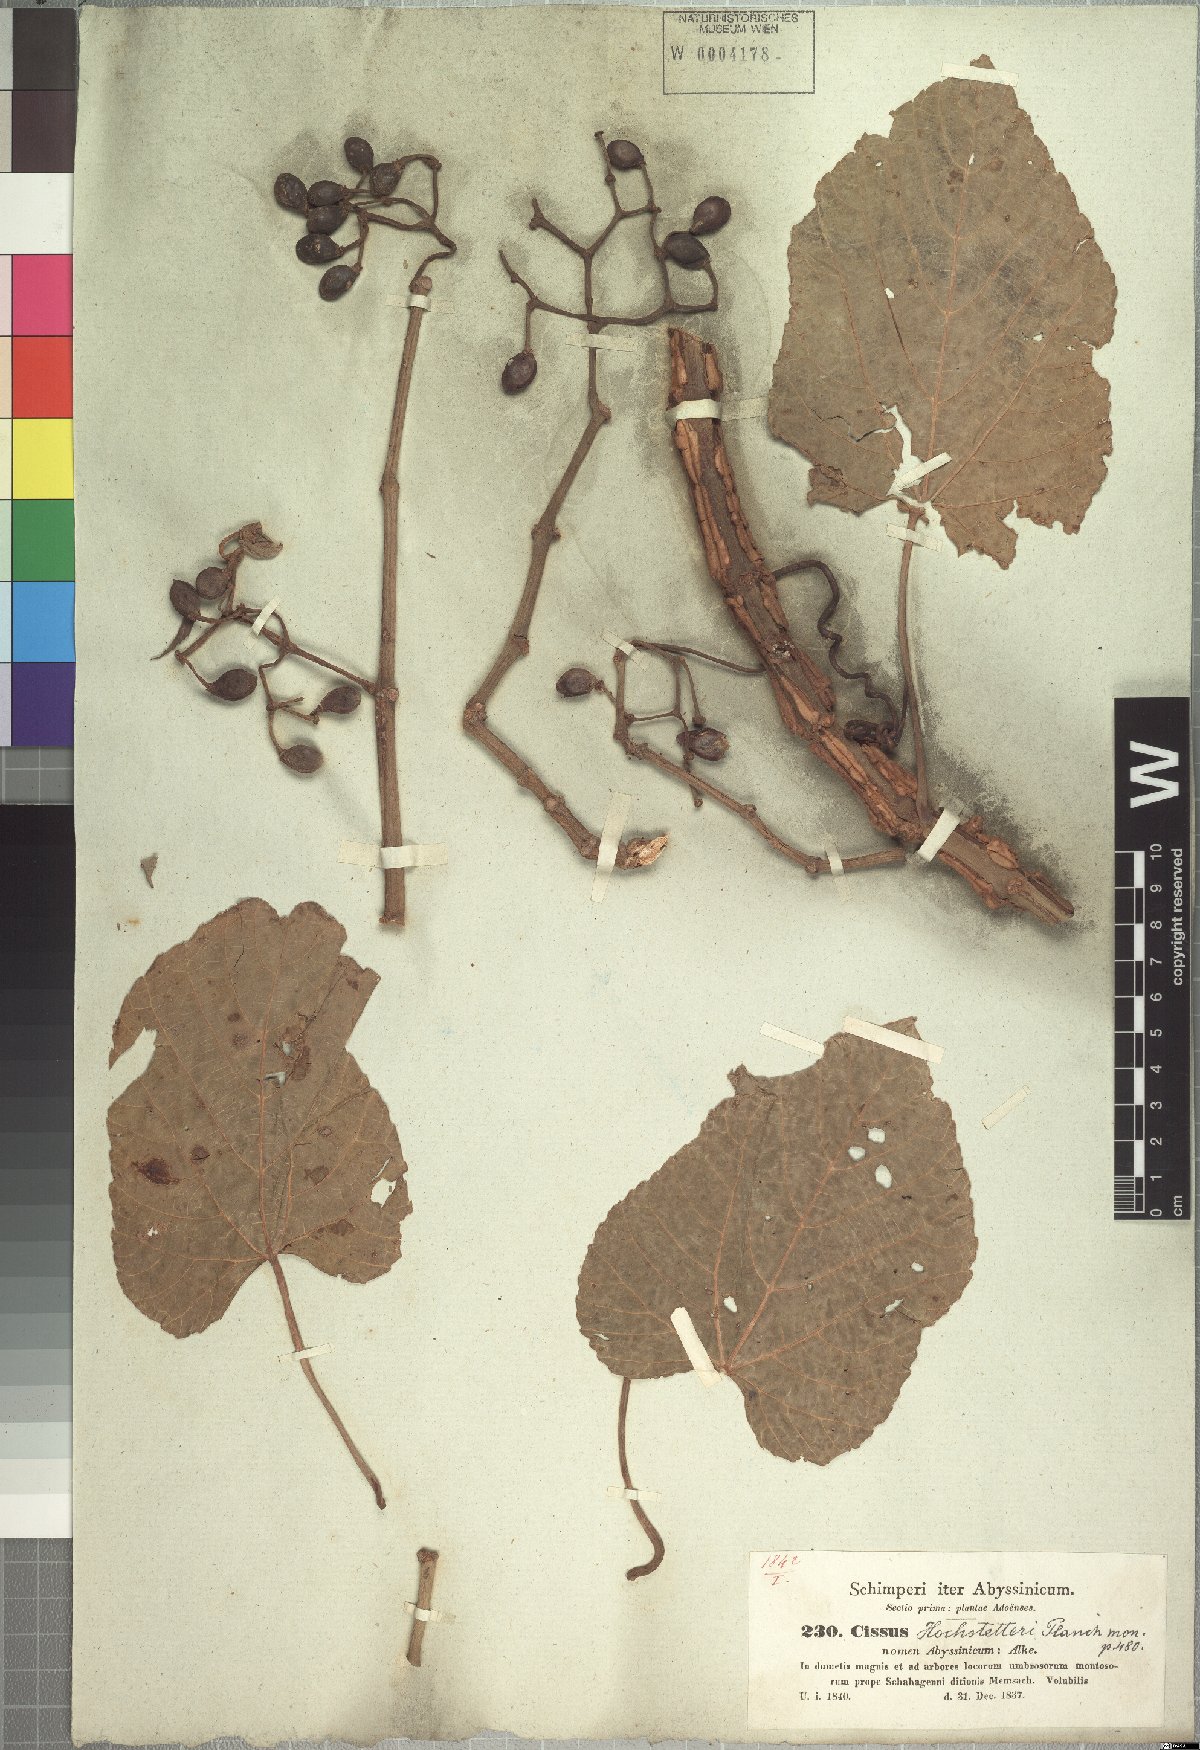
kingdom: Plantae
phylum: Tracheophyta
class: Magnoliopsida
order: Vitales
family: Vitaceae
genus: Cissus
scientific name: Cissus petiolata
